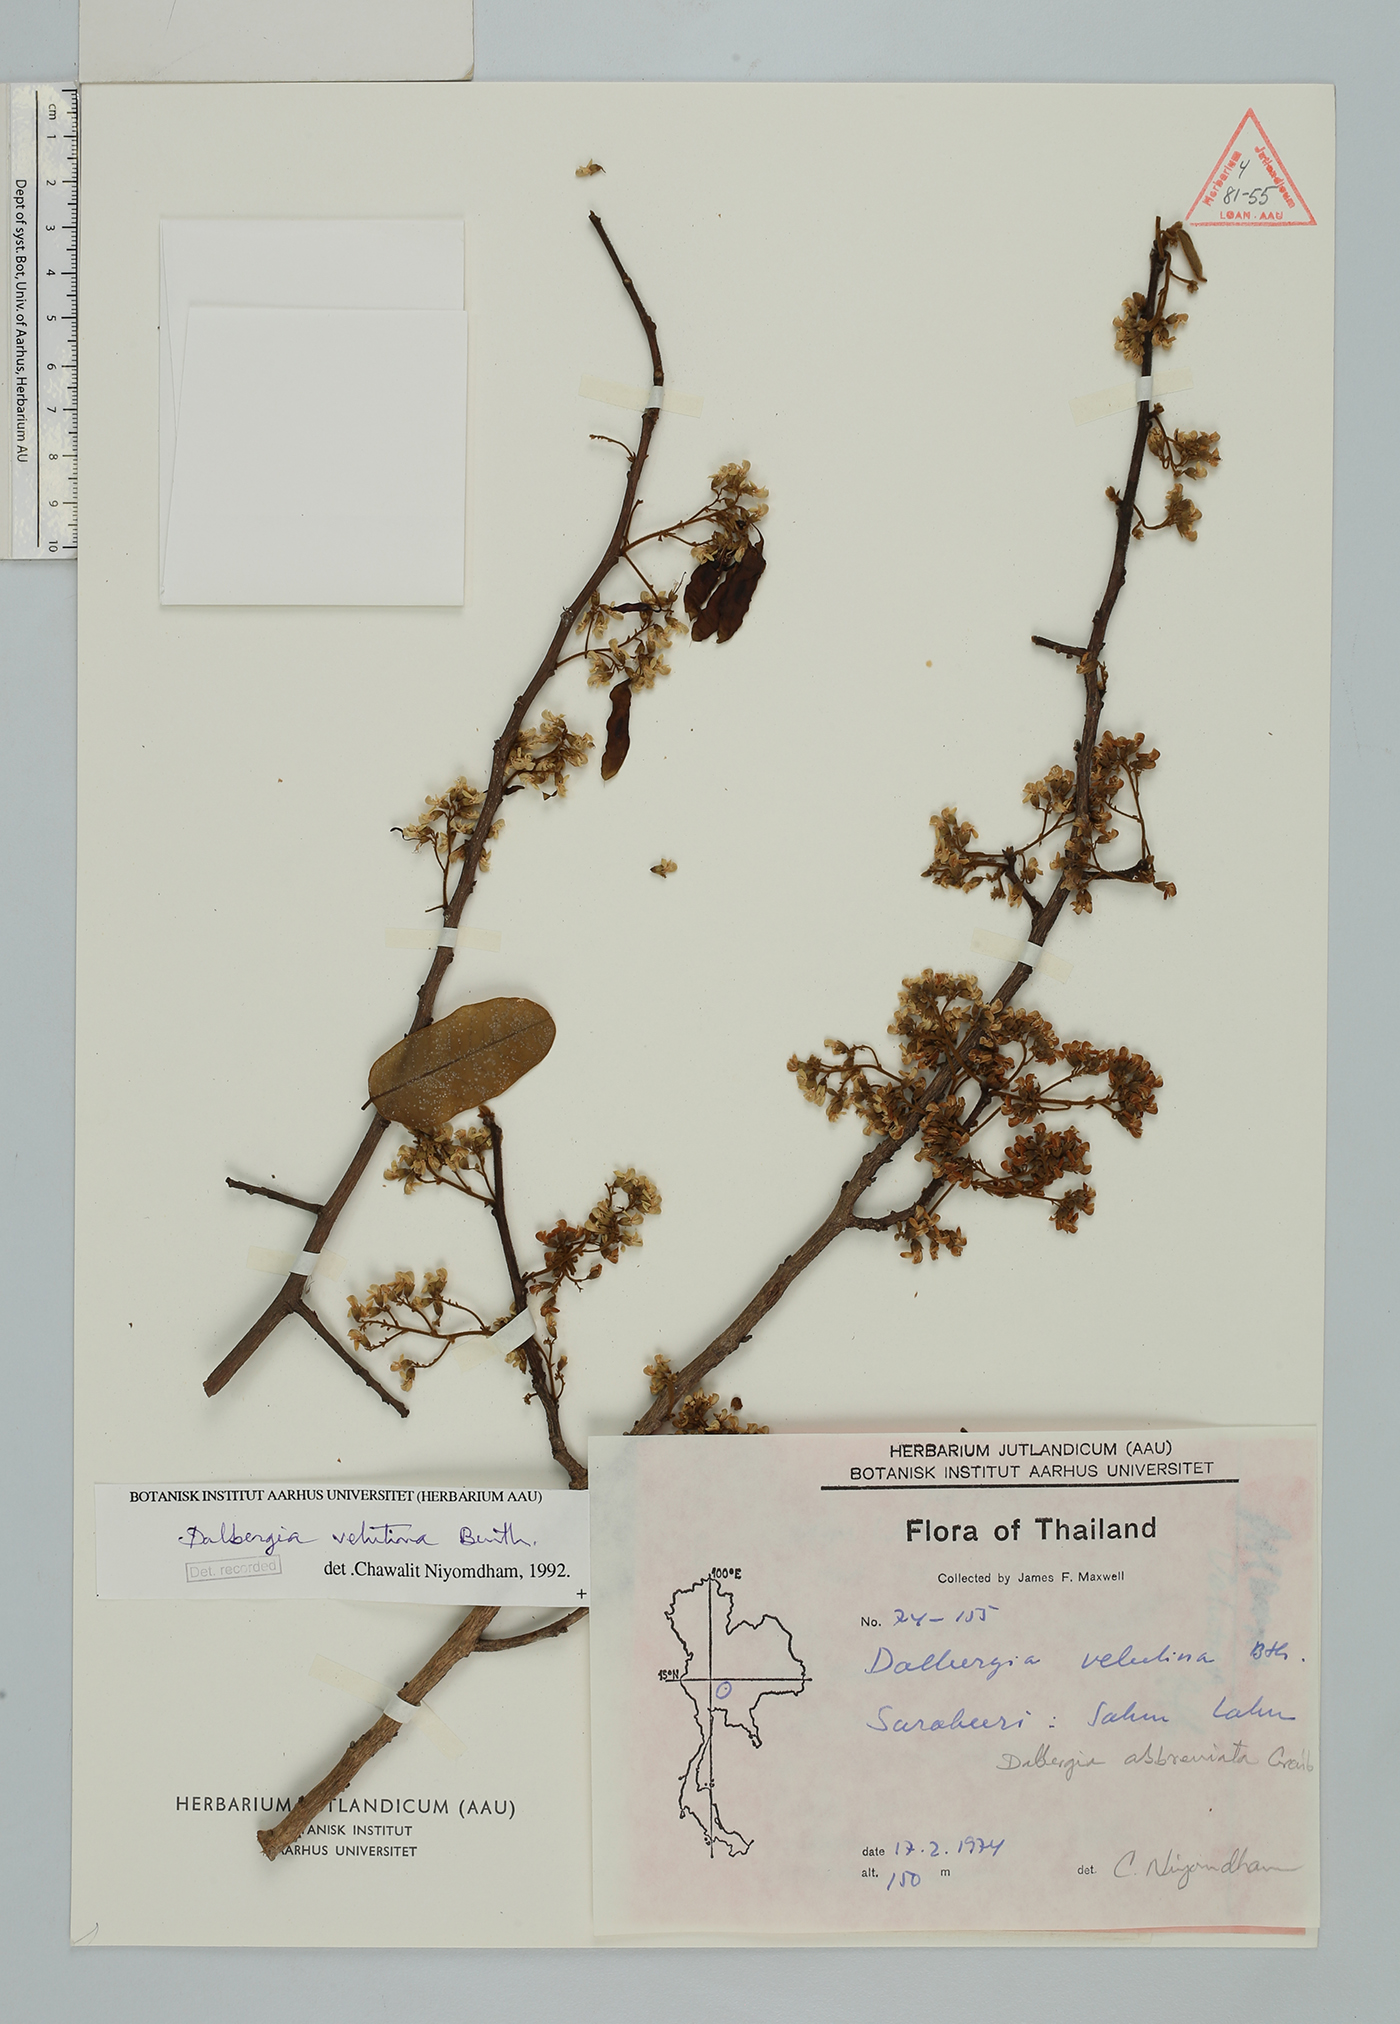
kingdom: Plantae
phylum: Tracheophyta
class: Magnoliopsida
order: Fabales
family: Fabaceae
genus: Dalbergia
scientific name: Dalbergia velutina
